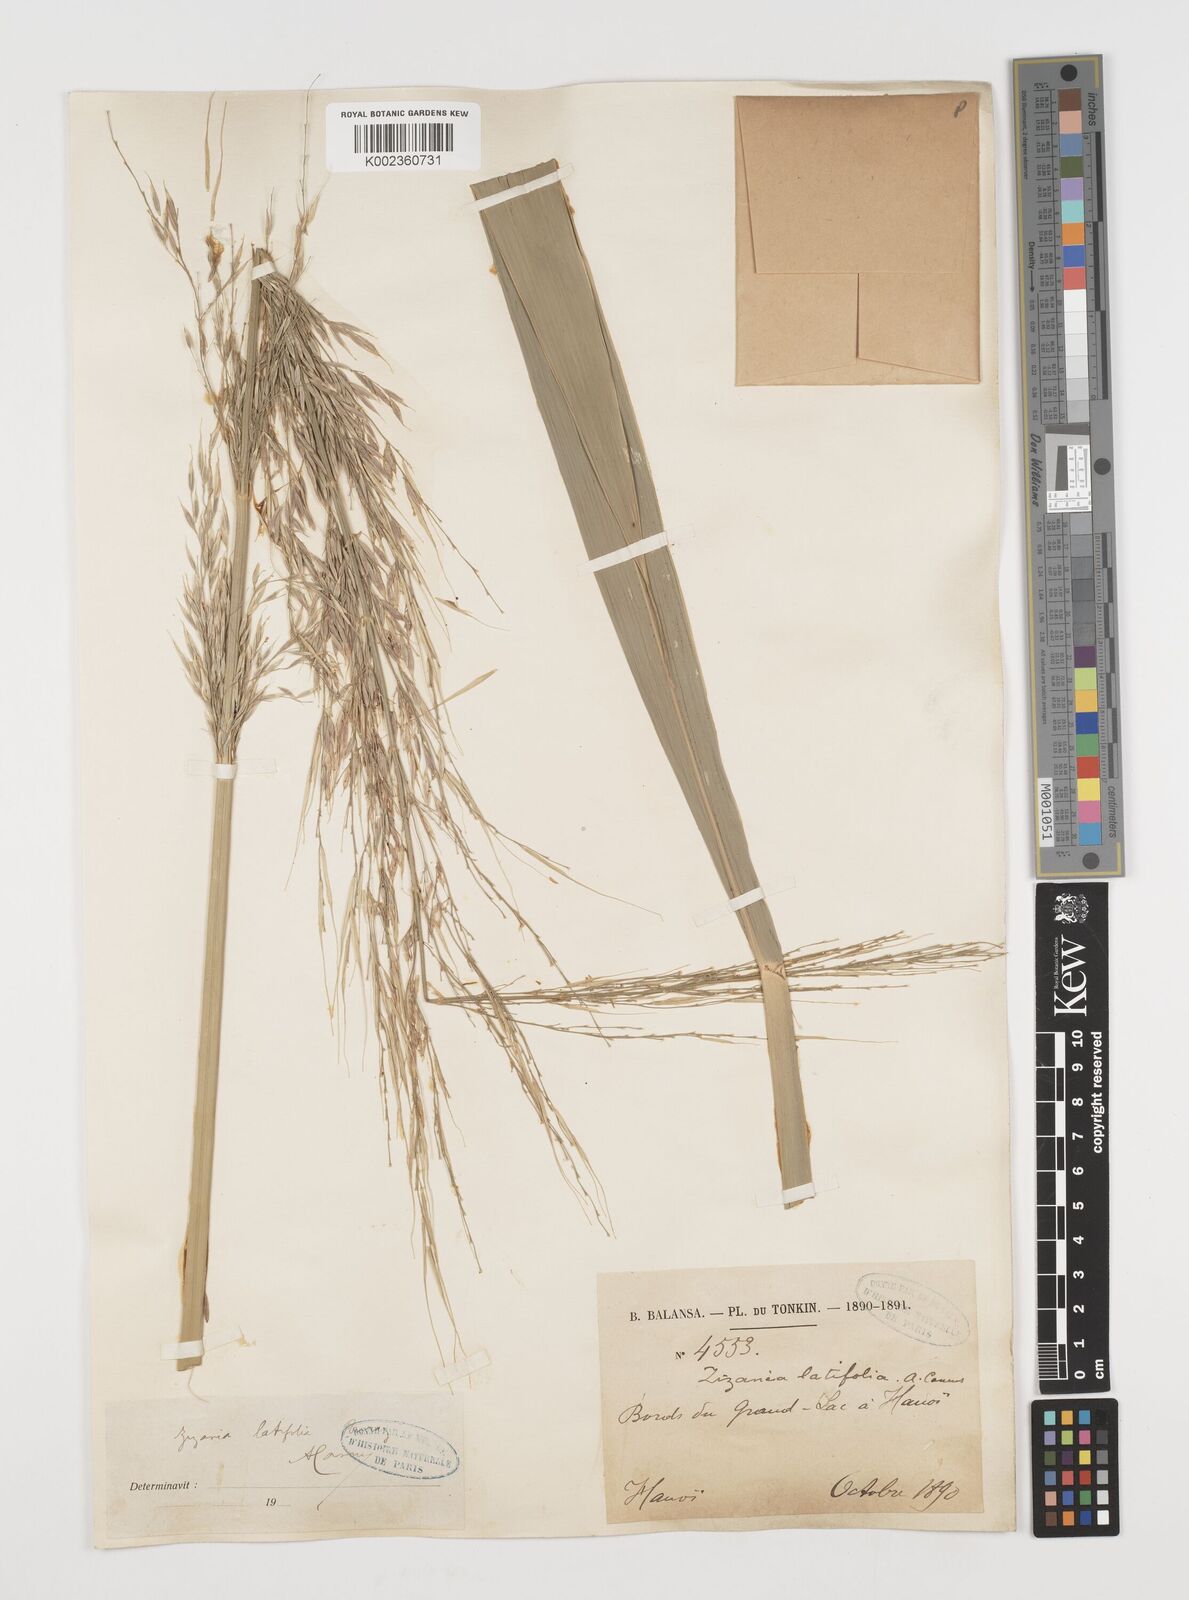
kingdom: Plantae
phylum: Tracheophyta
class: Liliopsida
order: Poales
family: Poaceae
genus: Zizania
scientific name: Zizania latifolia
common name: Manchurian wildrice
